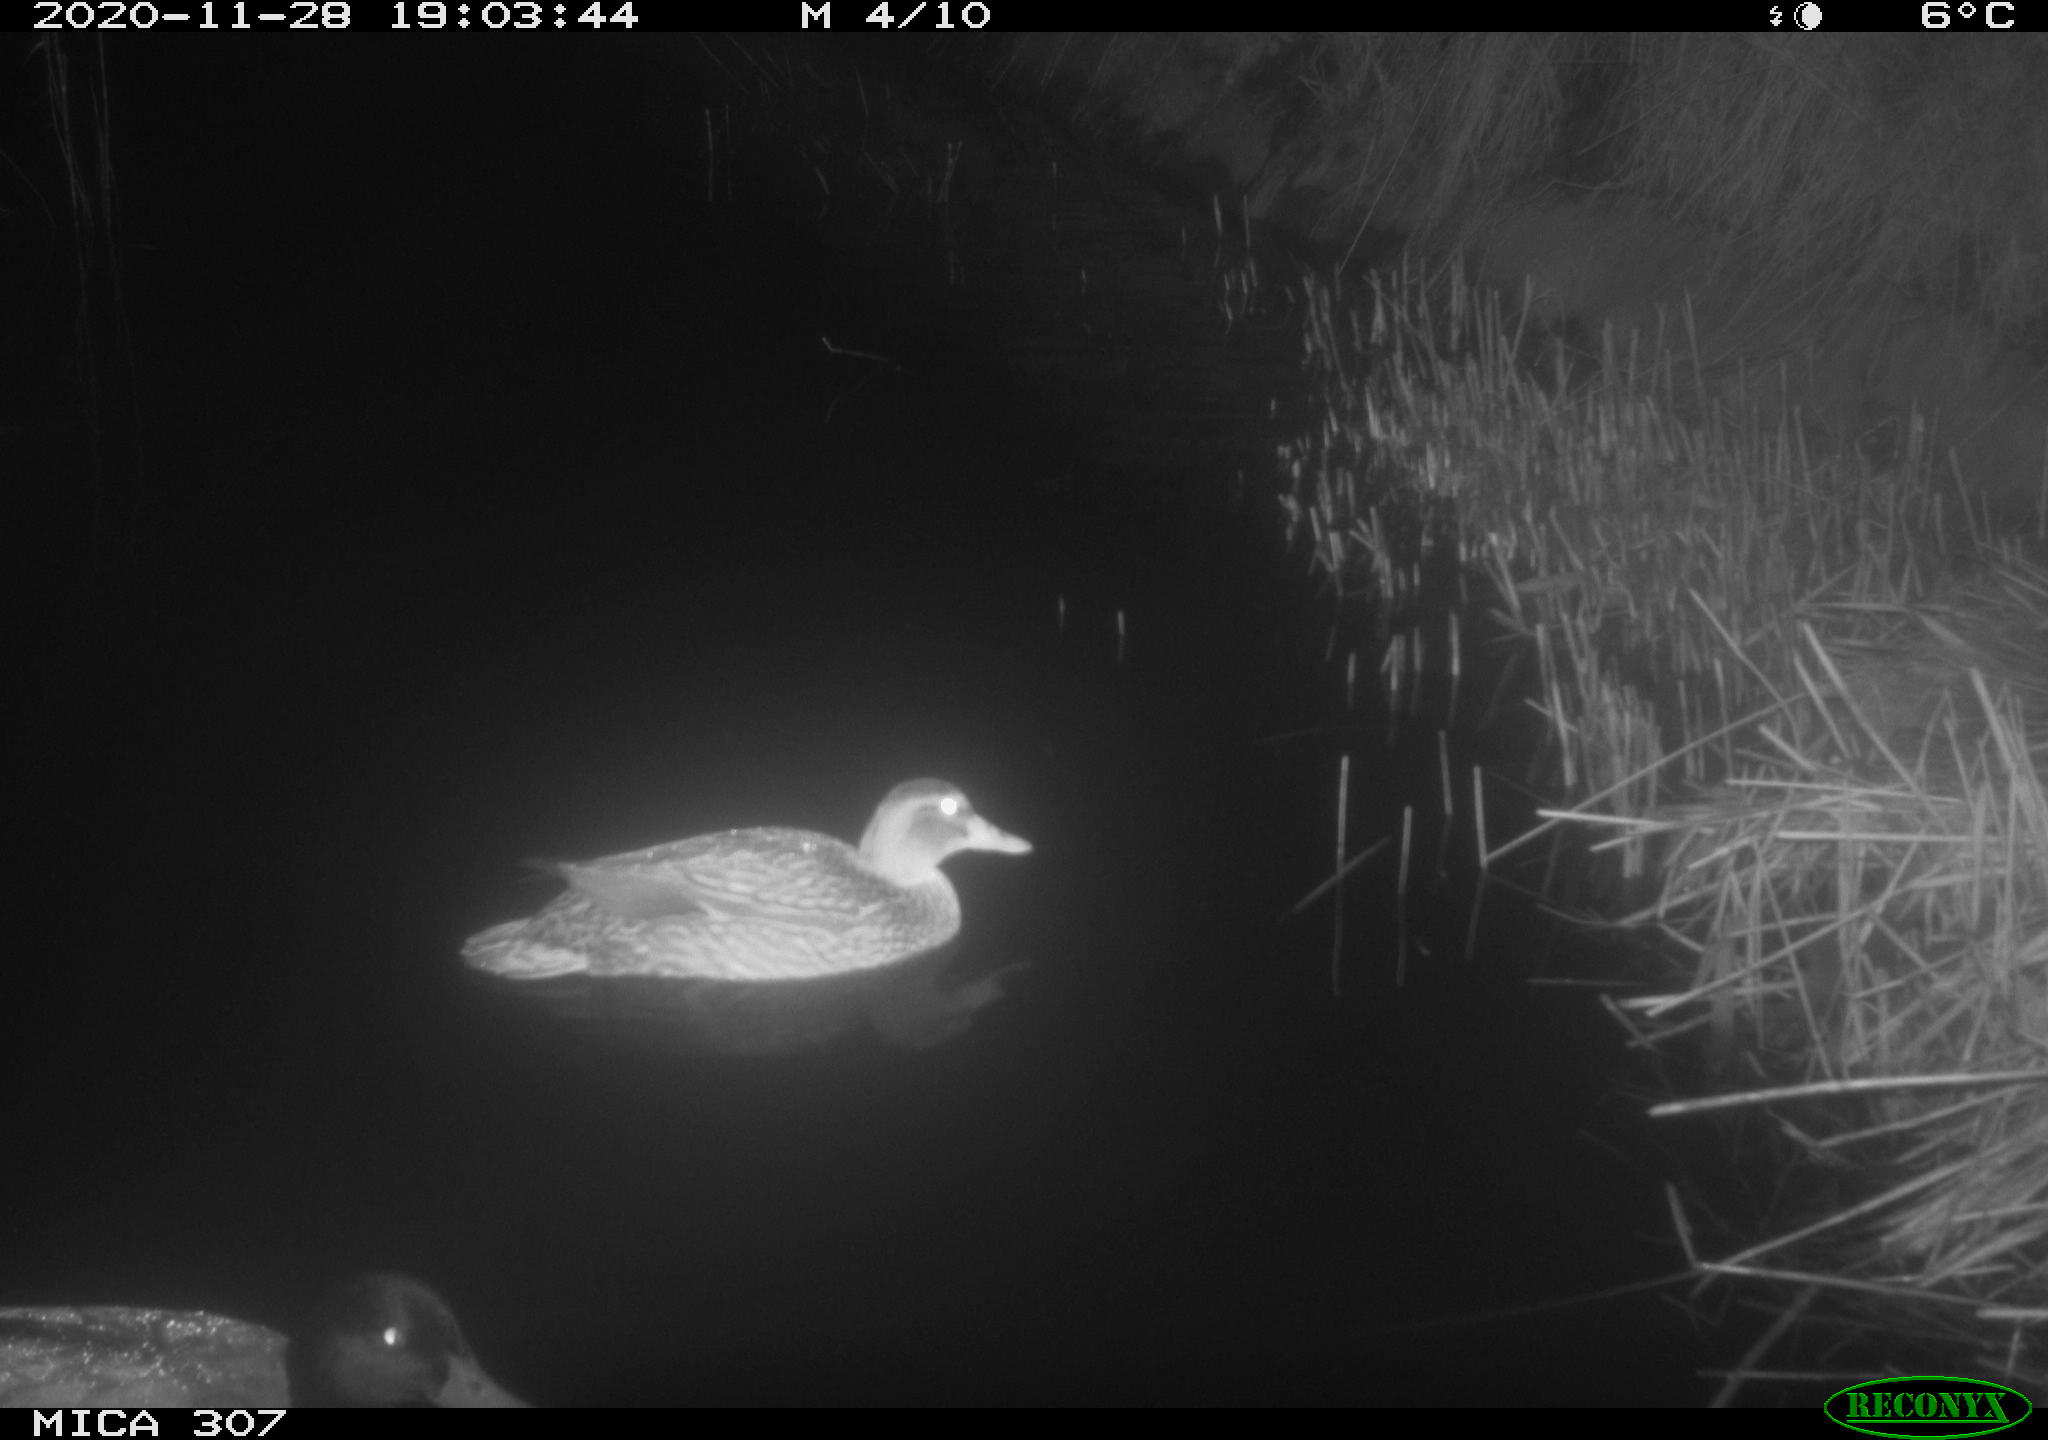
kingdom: Animalia
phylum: Chordata
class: Aves
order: Anseriformes
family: Anatidae
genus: Anas
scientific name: Anas platyrhynchos
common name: Mallard
